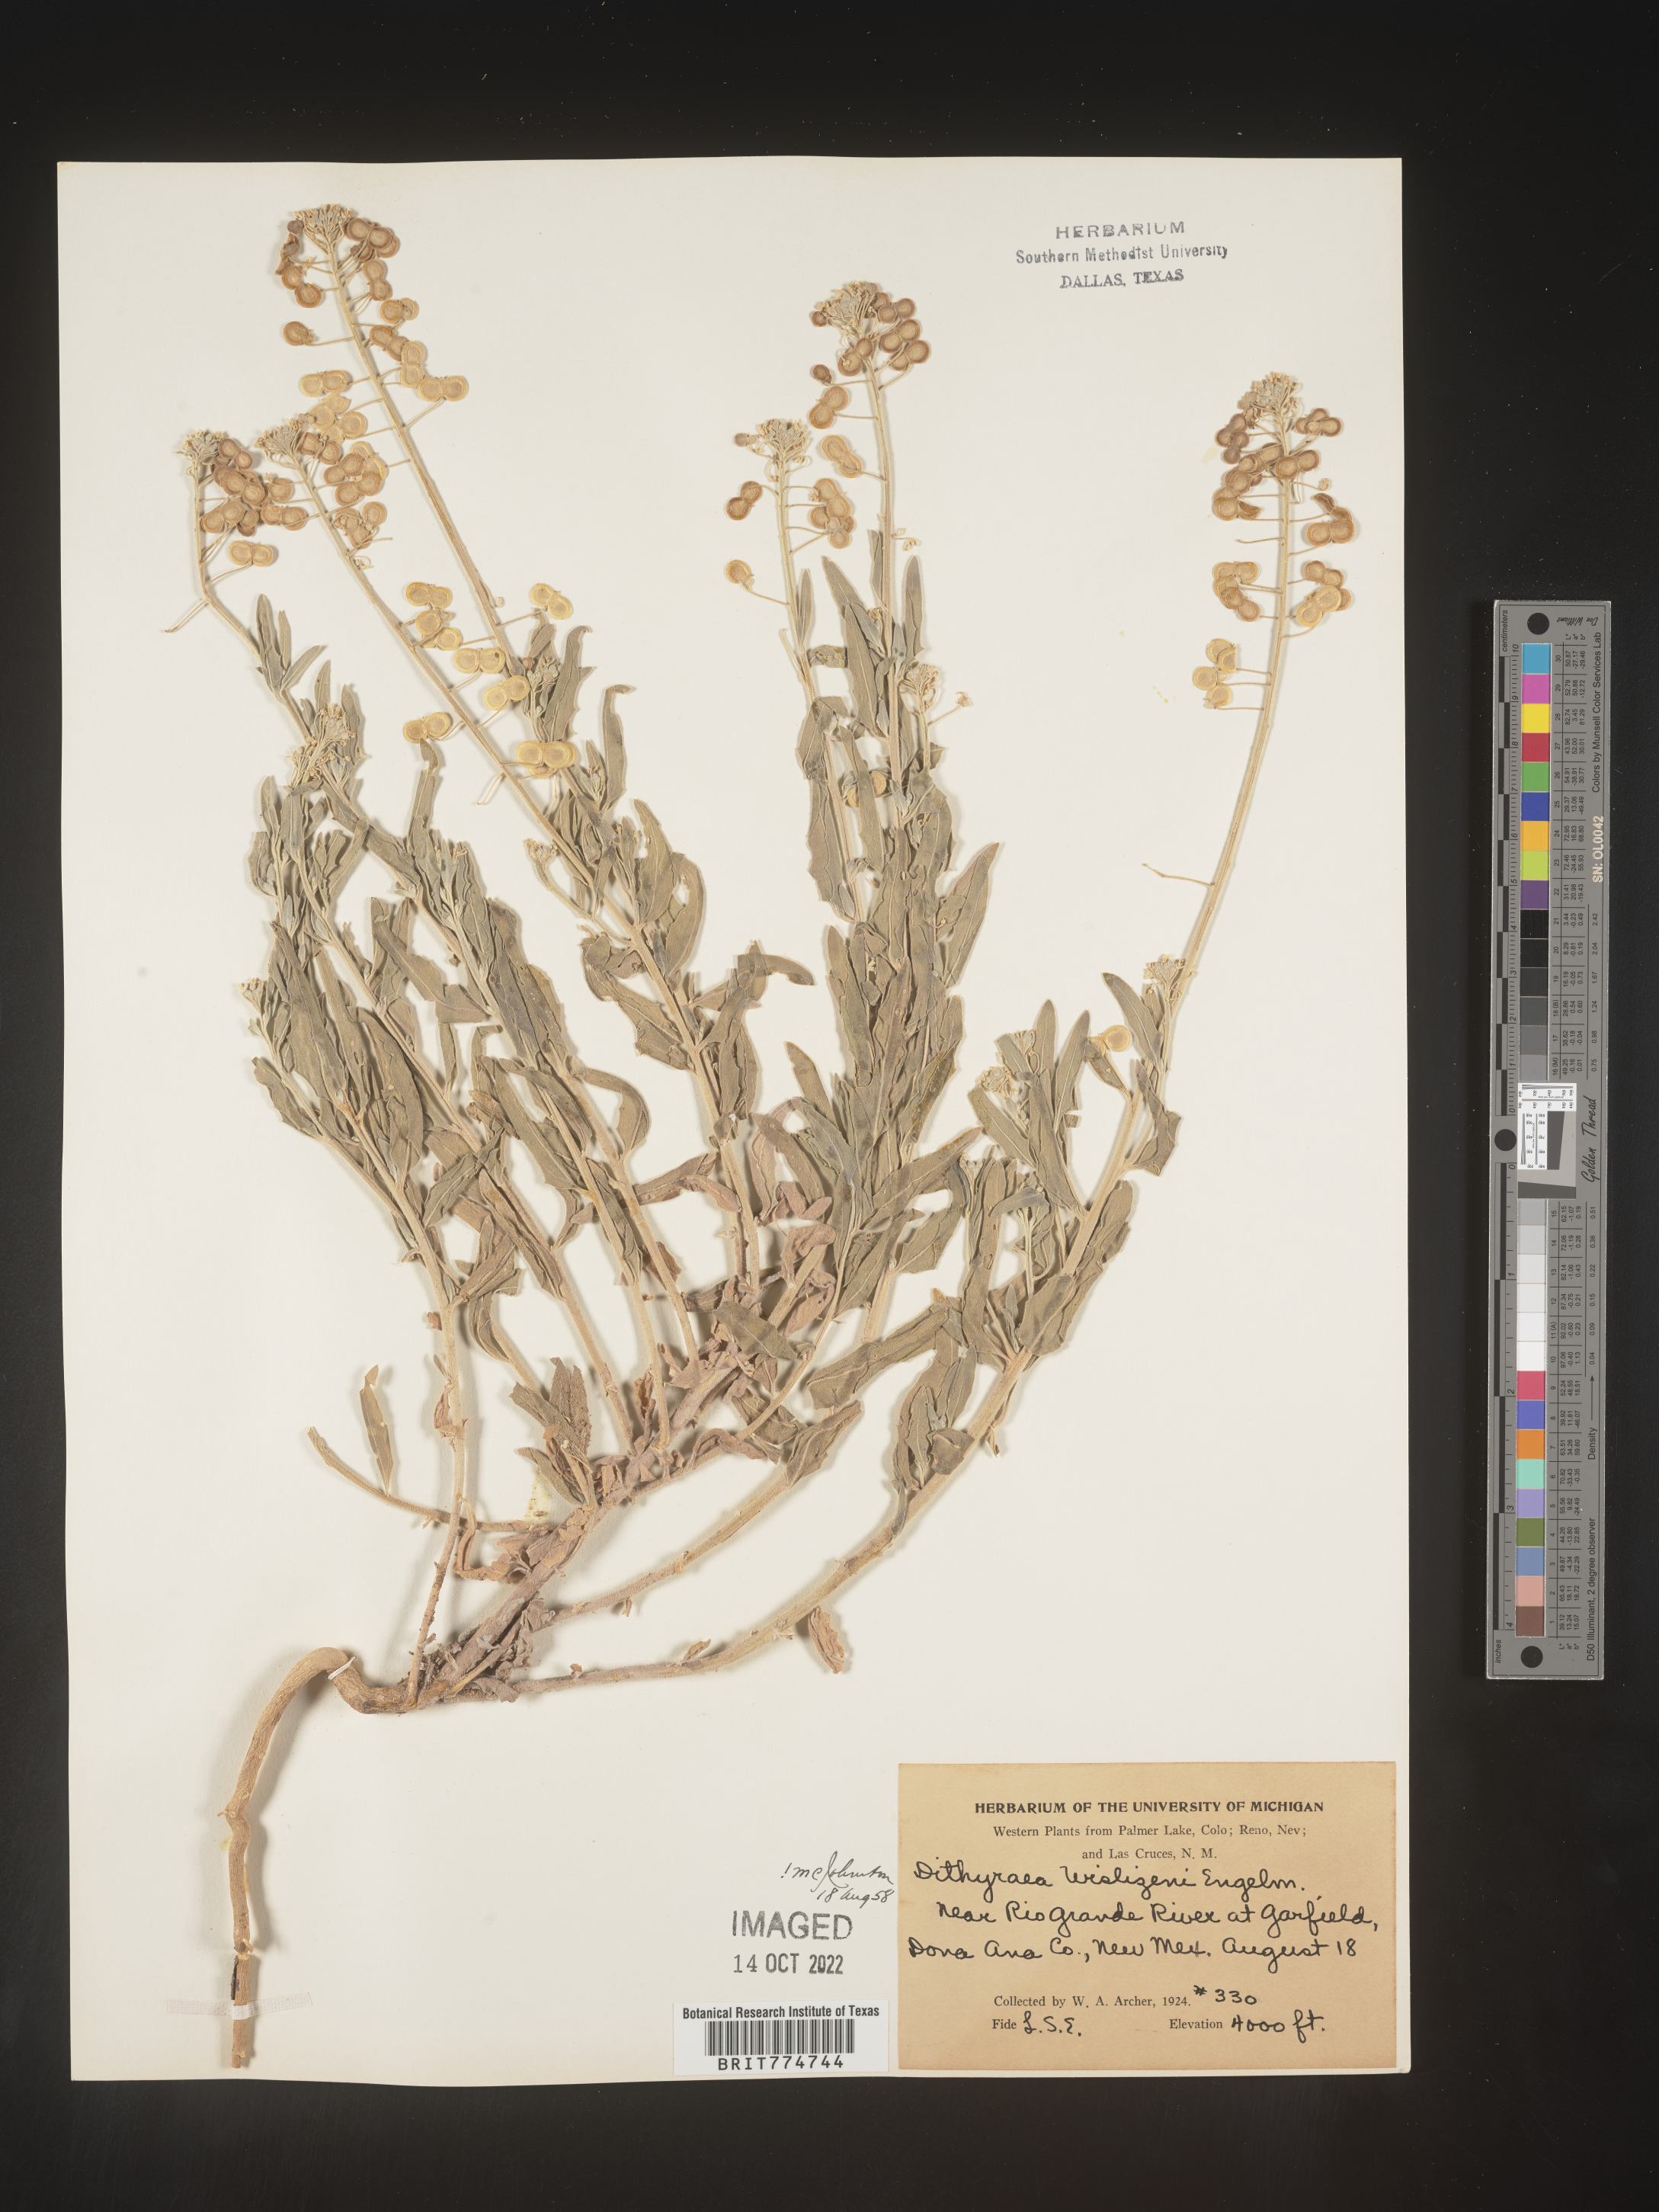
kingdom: Plantae
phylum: Tracheophyta
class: Magnoliopsida
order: Brassicales
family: Brassicaceae
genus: Dimorphocarpa
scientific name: Dimorphocarpa wislizenii
